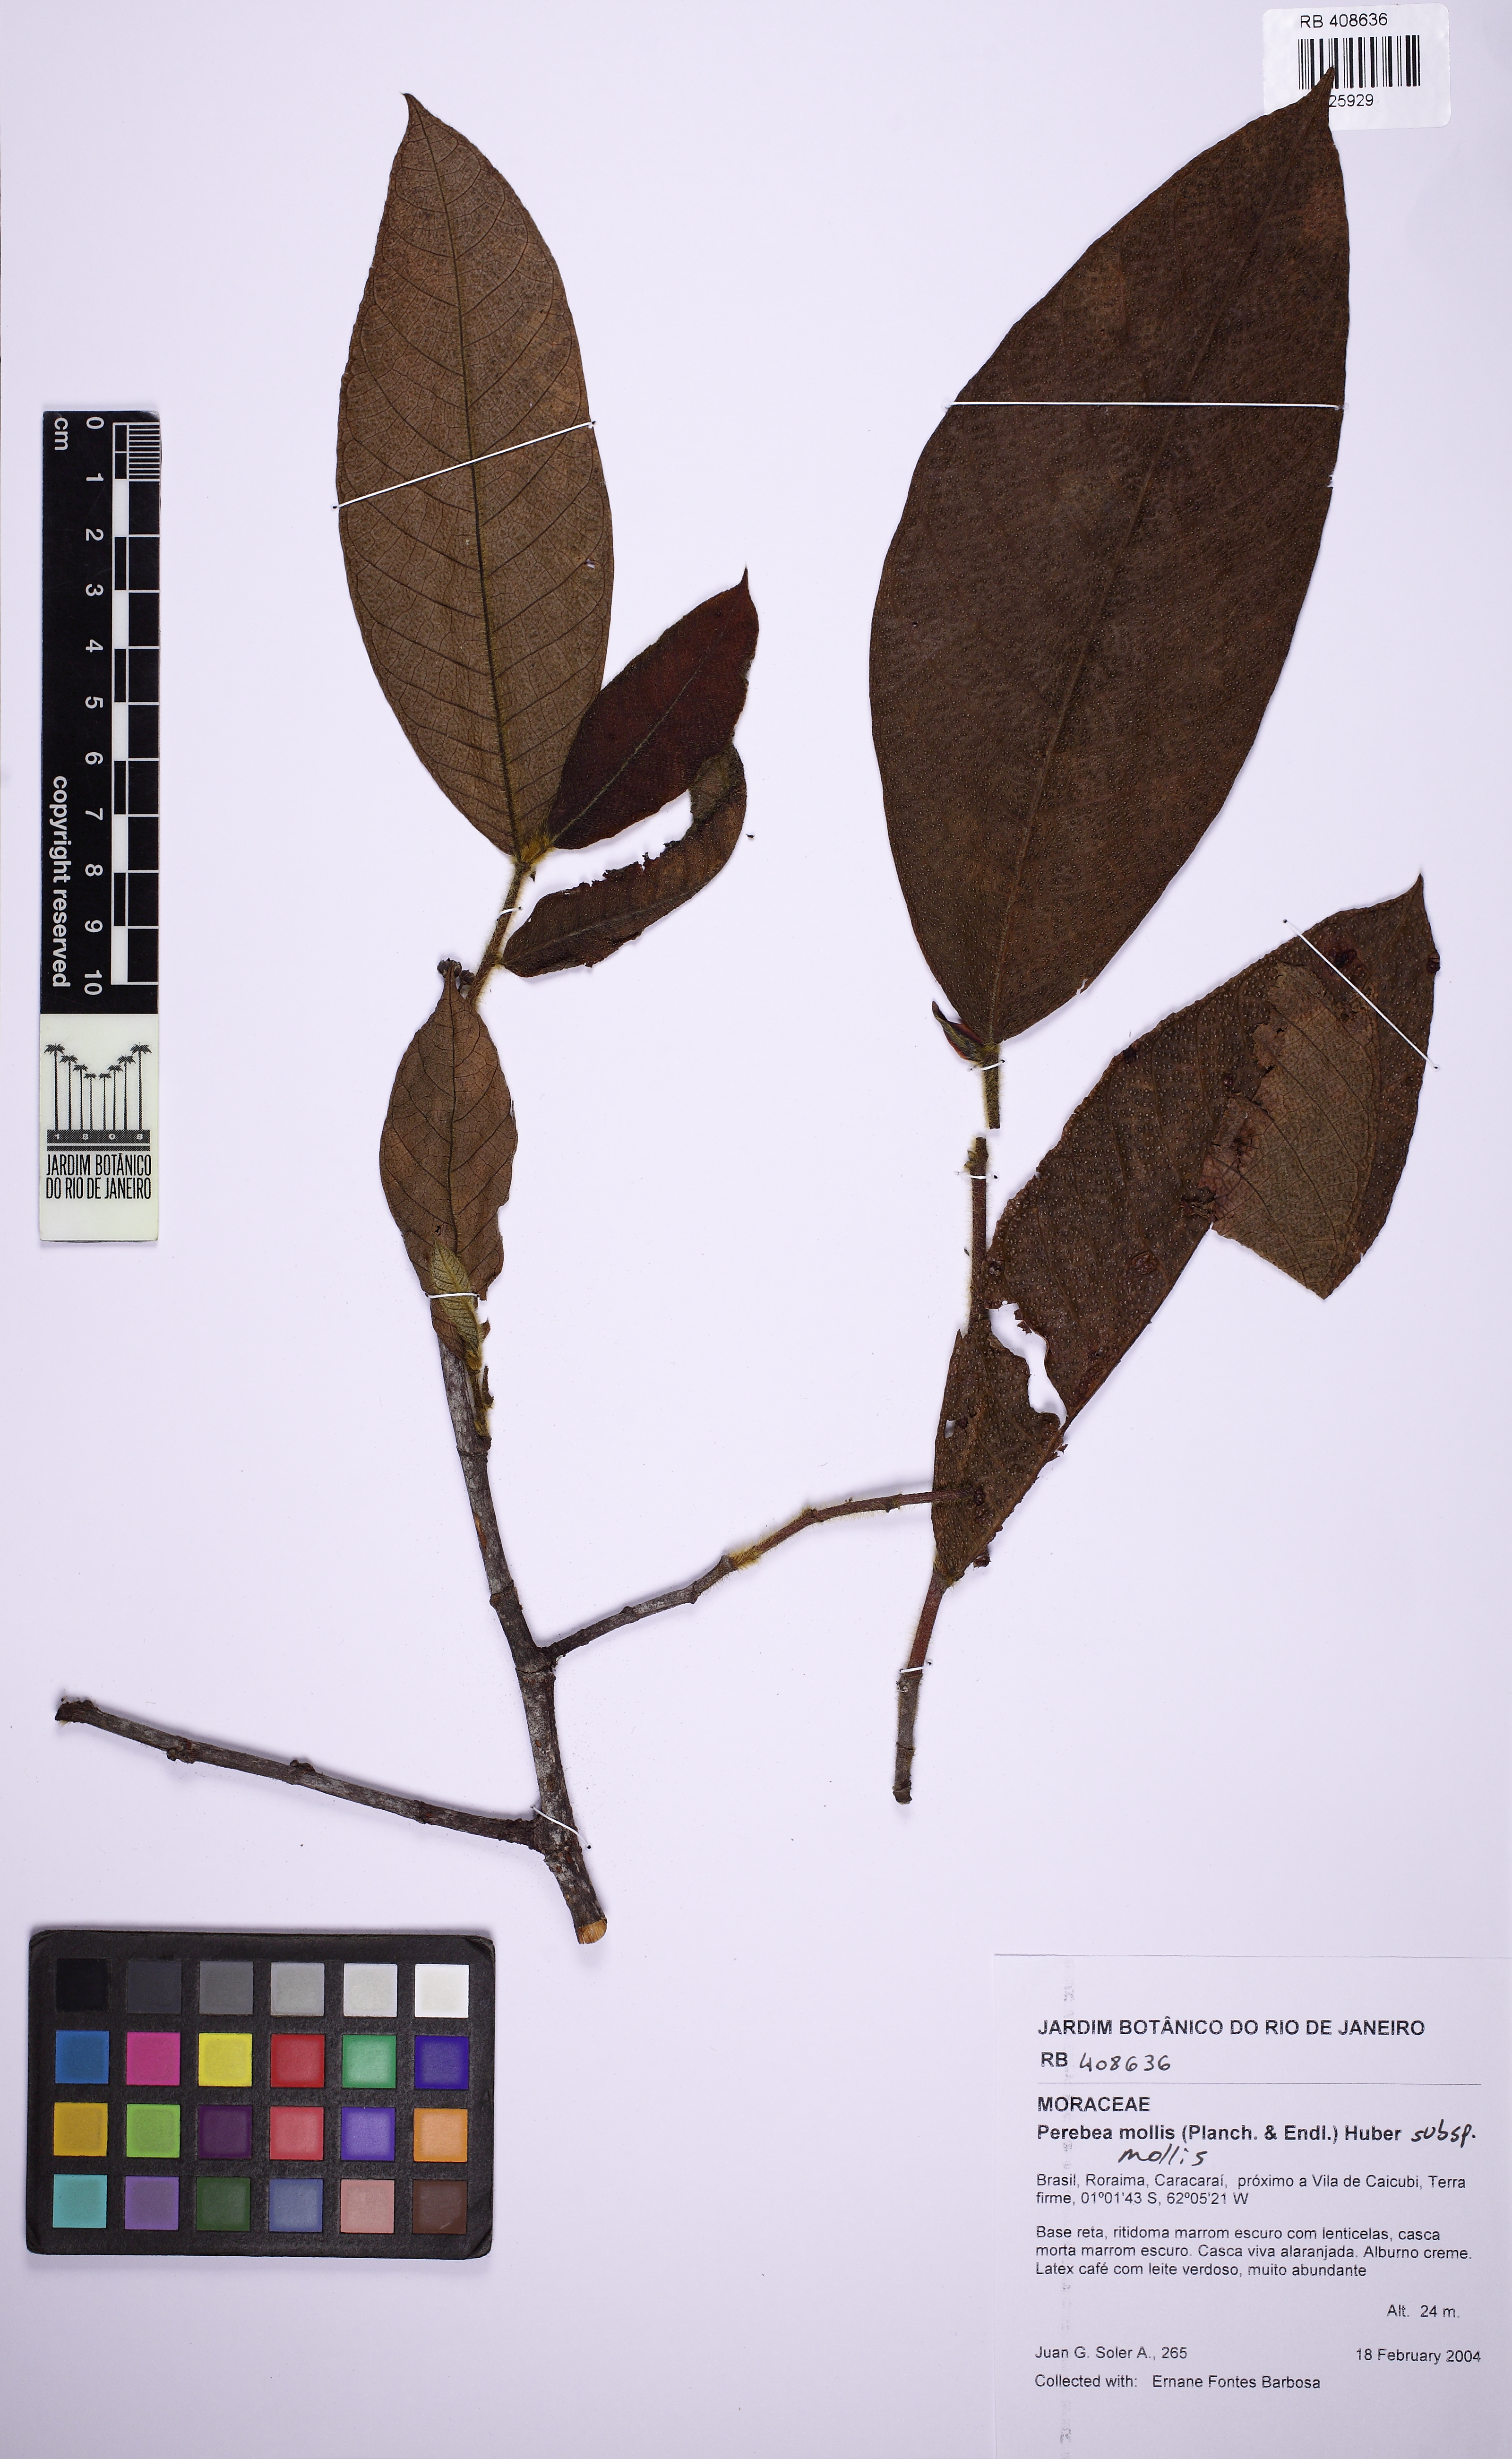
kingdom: Plantae
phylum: Tracheophyta
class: Magnoliopsida
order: Rosales
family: Moraceae
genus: Perebea
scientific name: Perebea mollis
